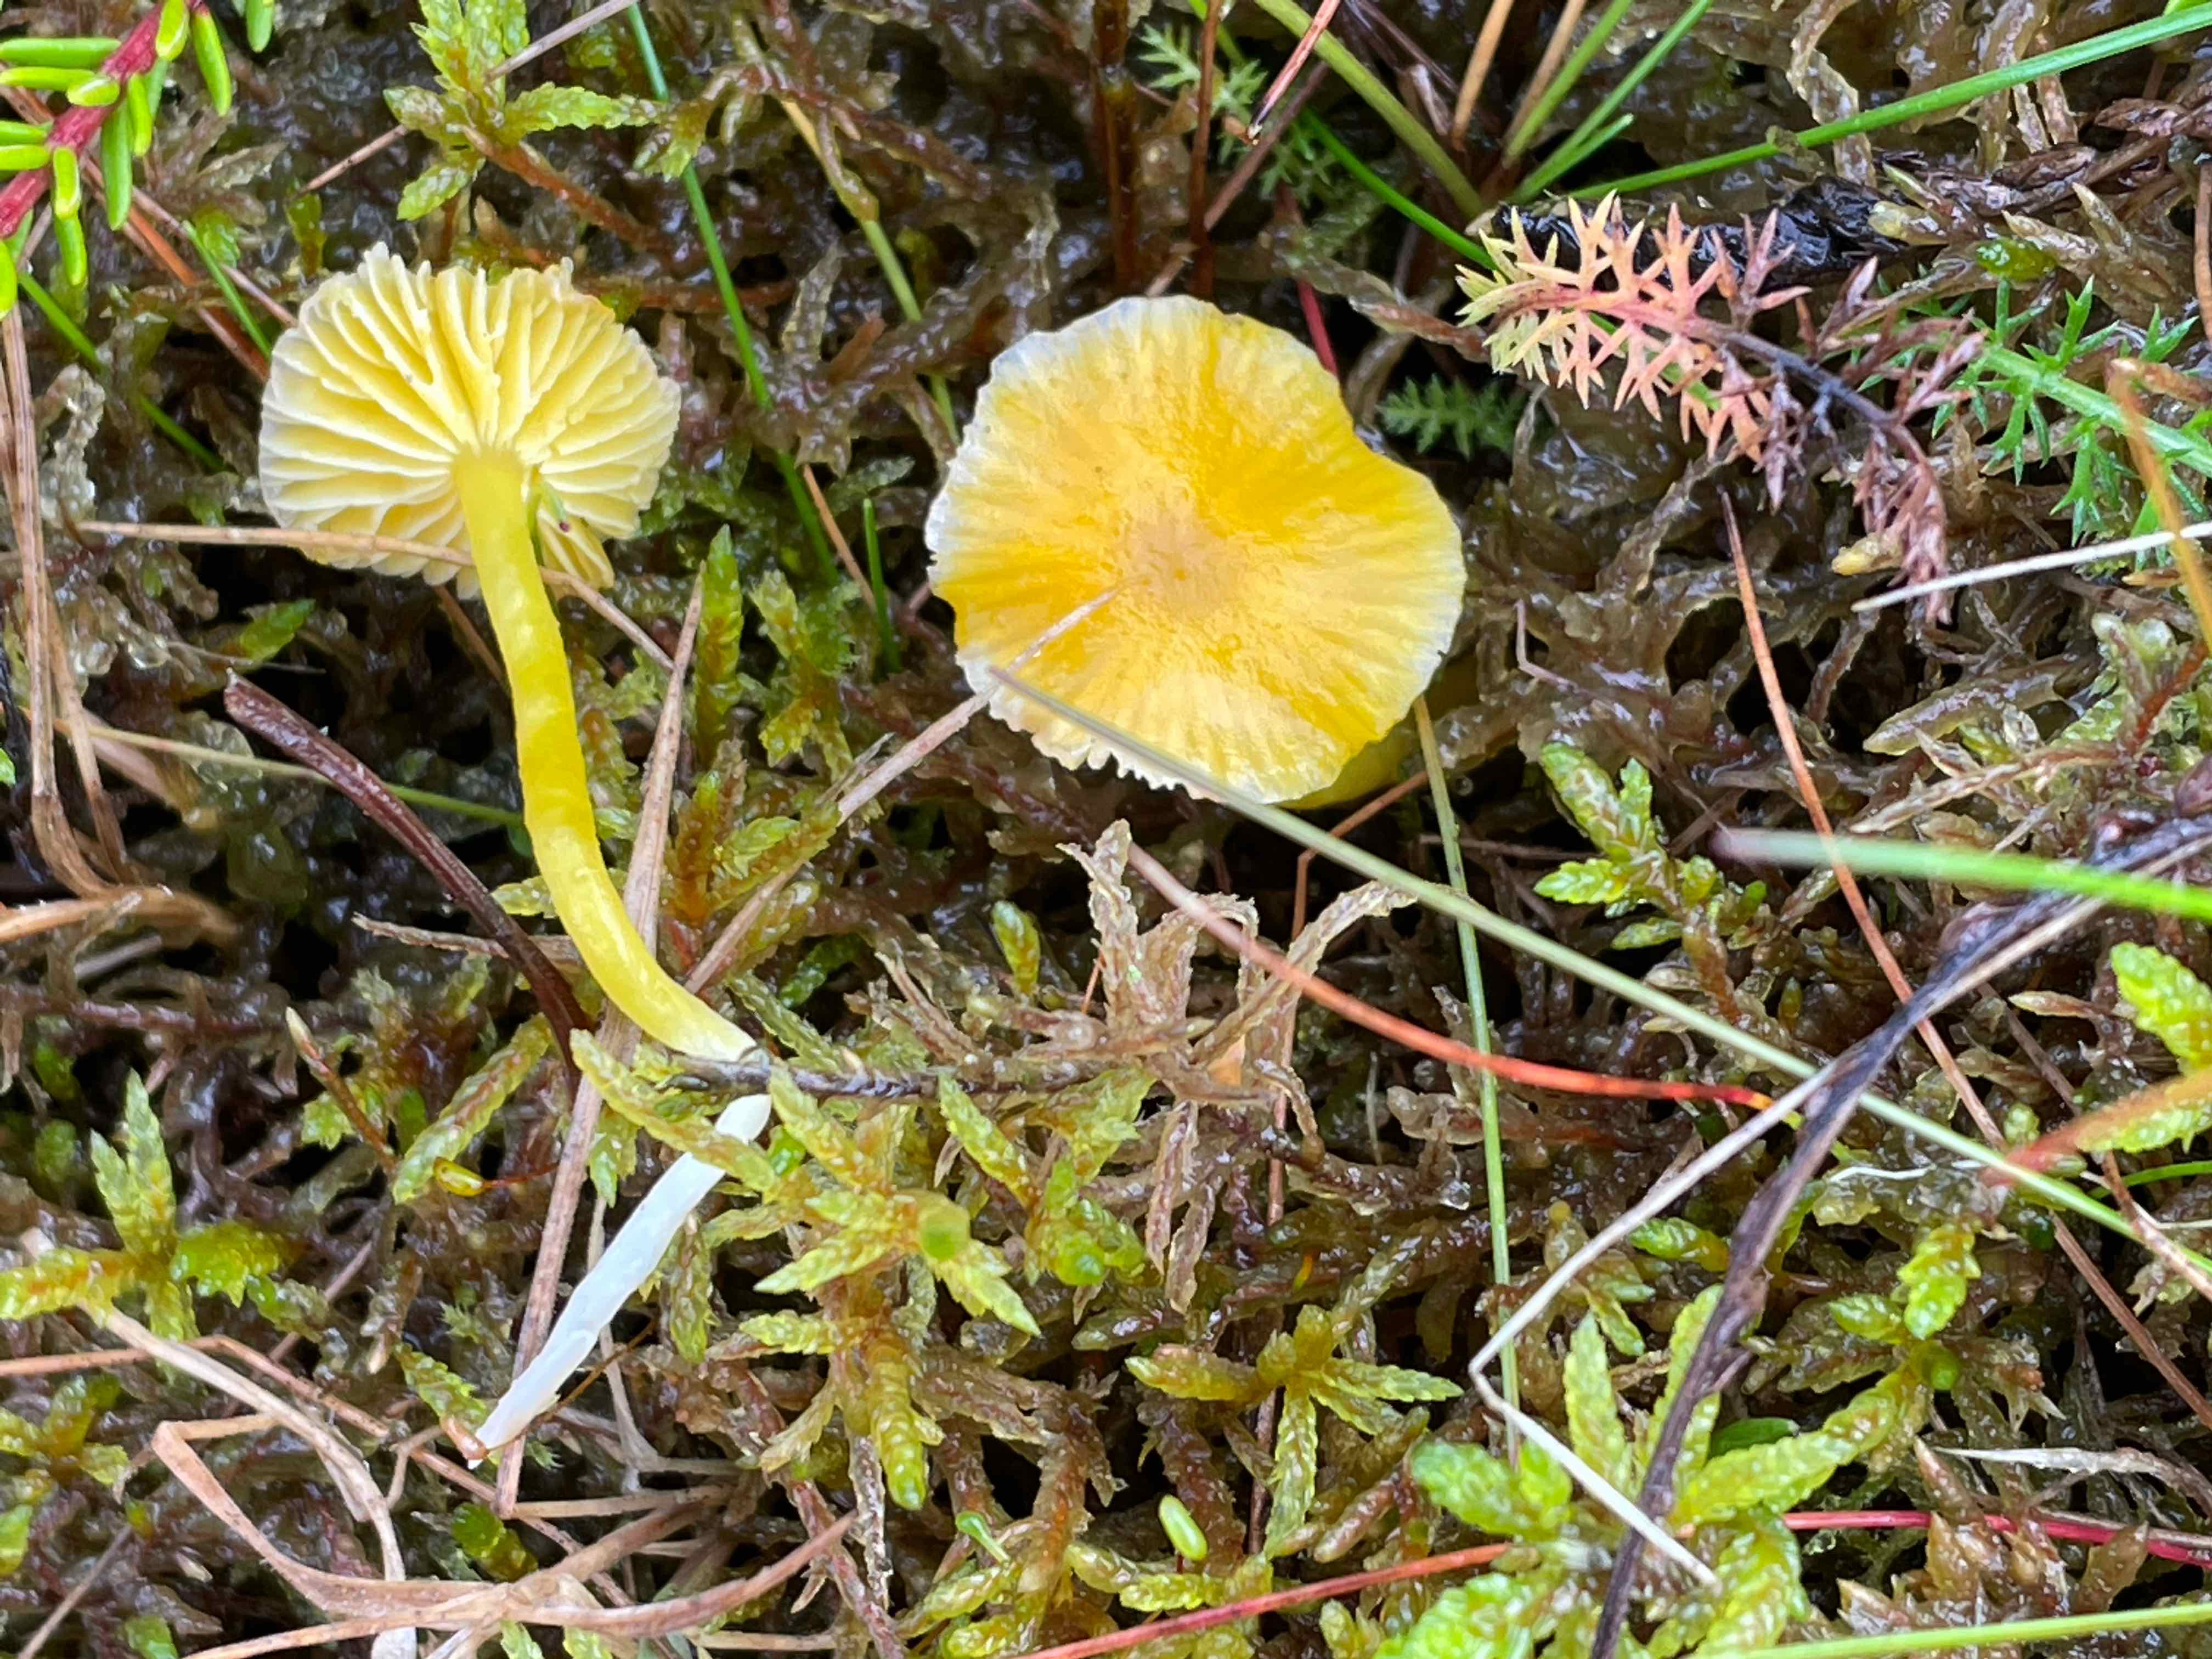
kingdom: Fungi
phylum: Basidiomycota
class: Agaricomycetes
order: Agaricales
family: Hygrophoraceae
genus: Hygrocybe
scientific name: Hygrocybe ceracea
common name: voksgul vokshat
